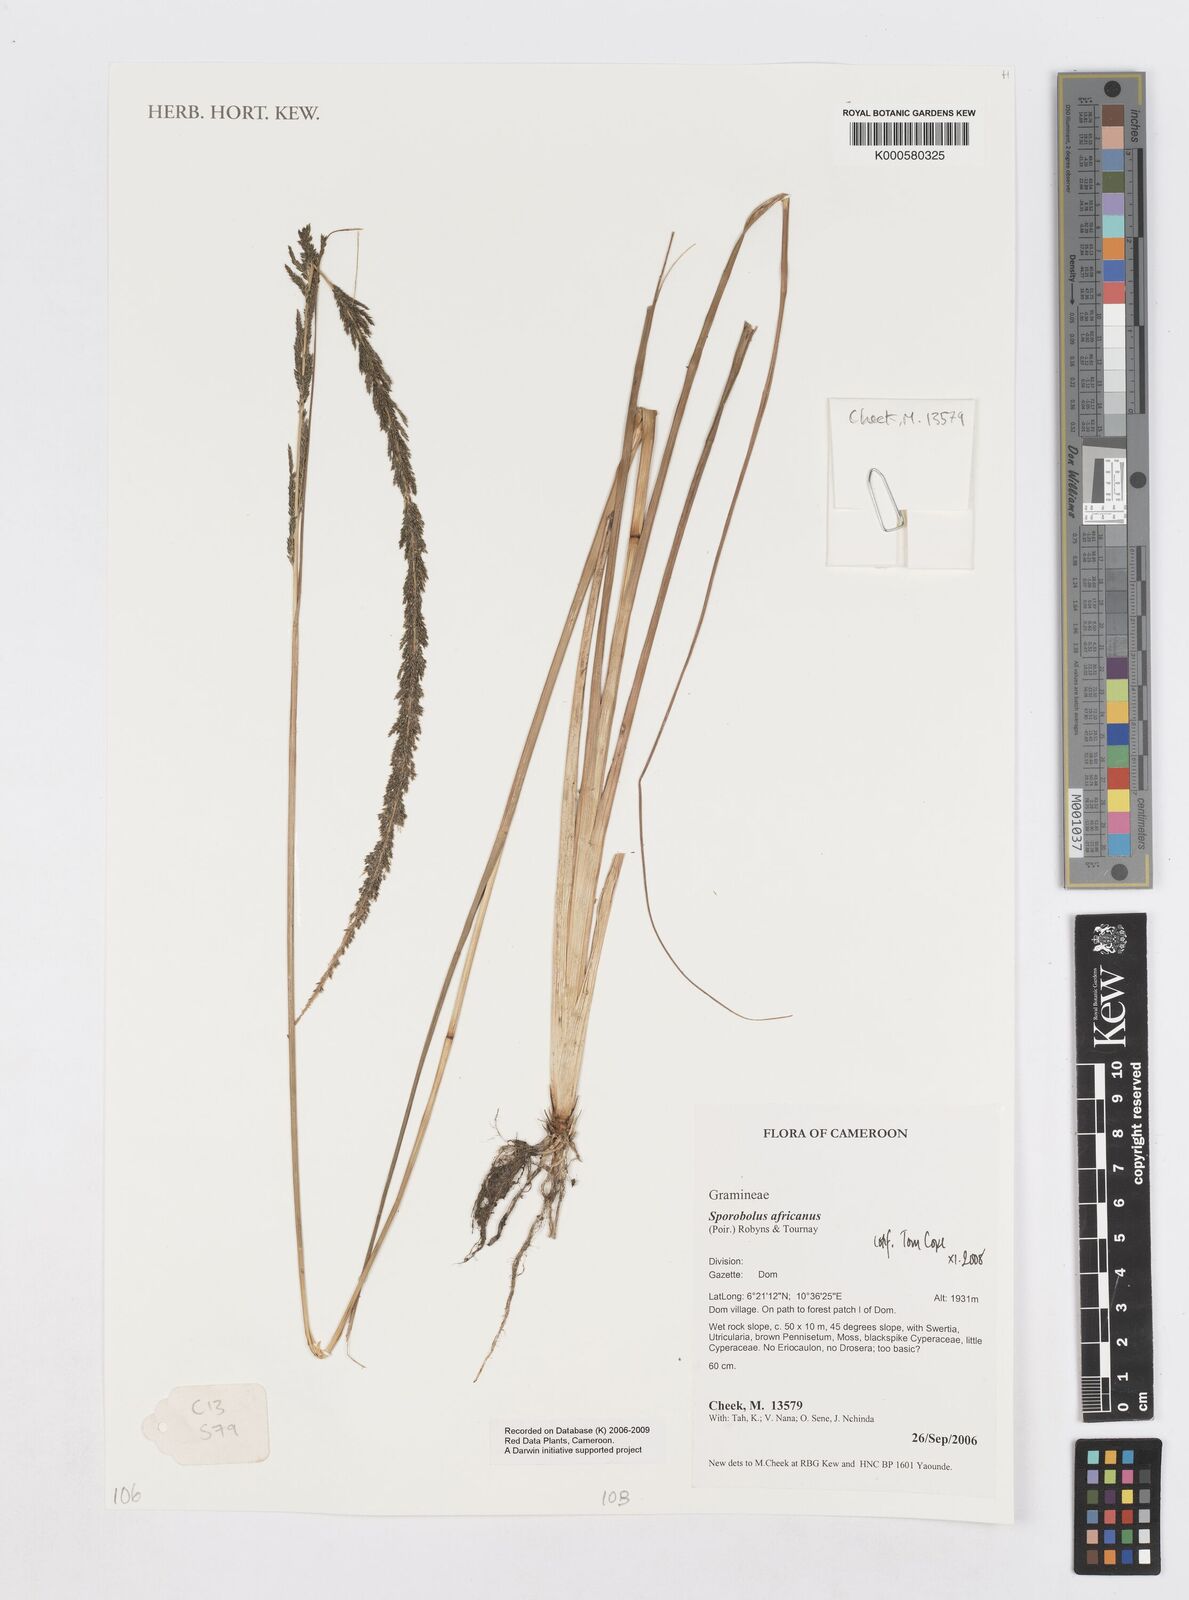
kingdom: Plantae
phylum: Tracheophyta
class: Liliopsida
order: Poales
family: Poaceae
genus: Sporobolus
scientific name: Sporobolus africanus
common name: African dropseed
